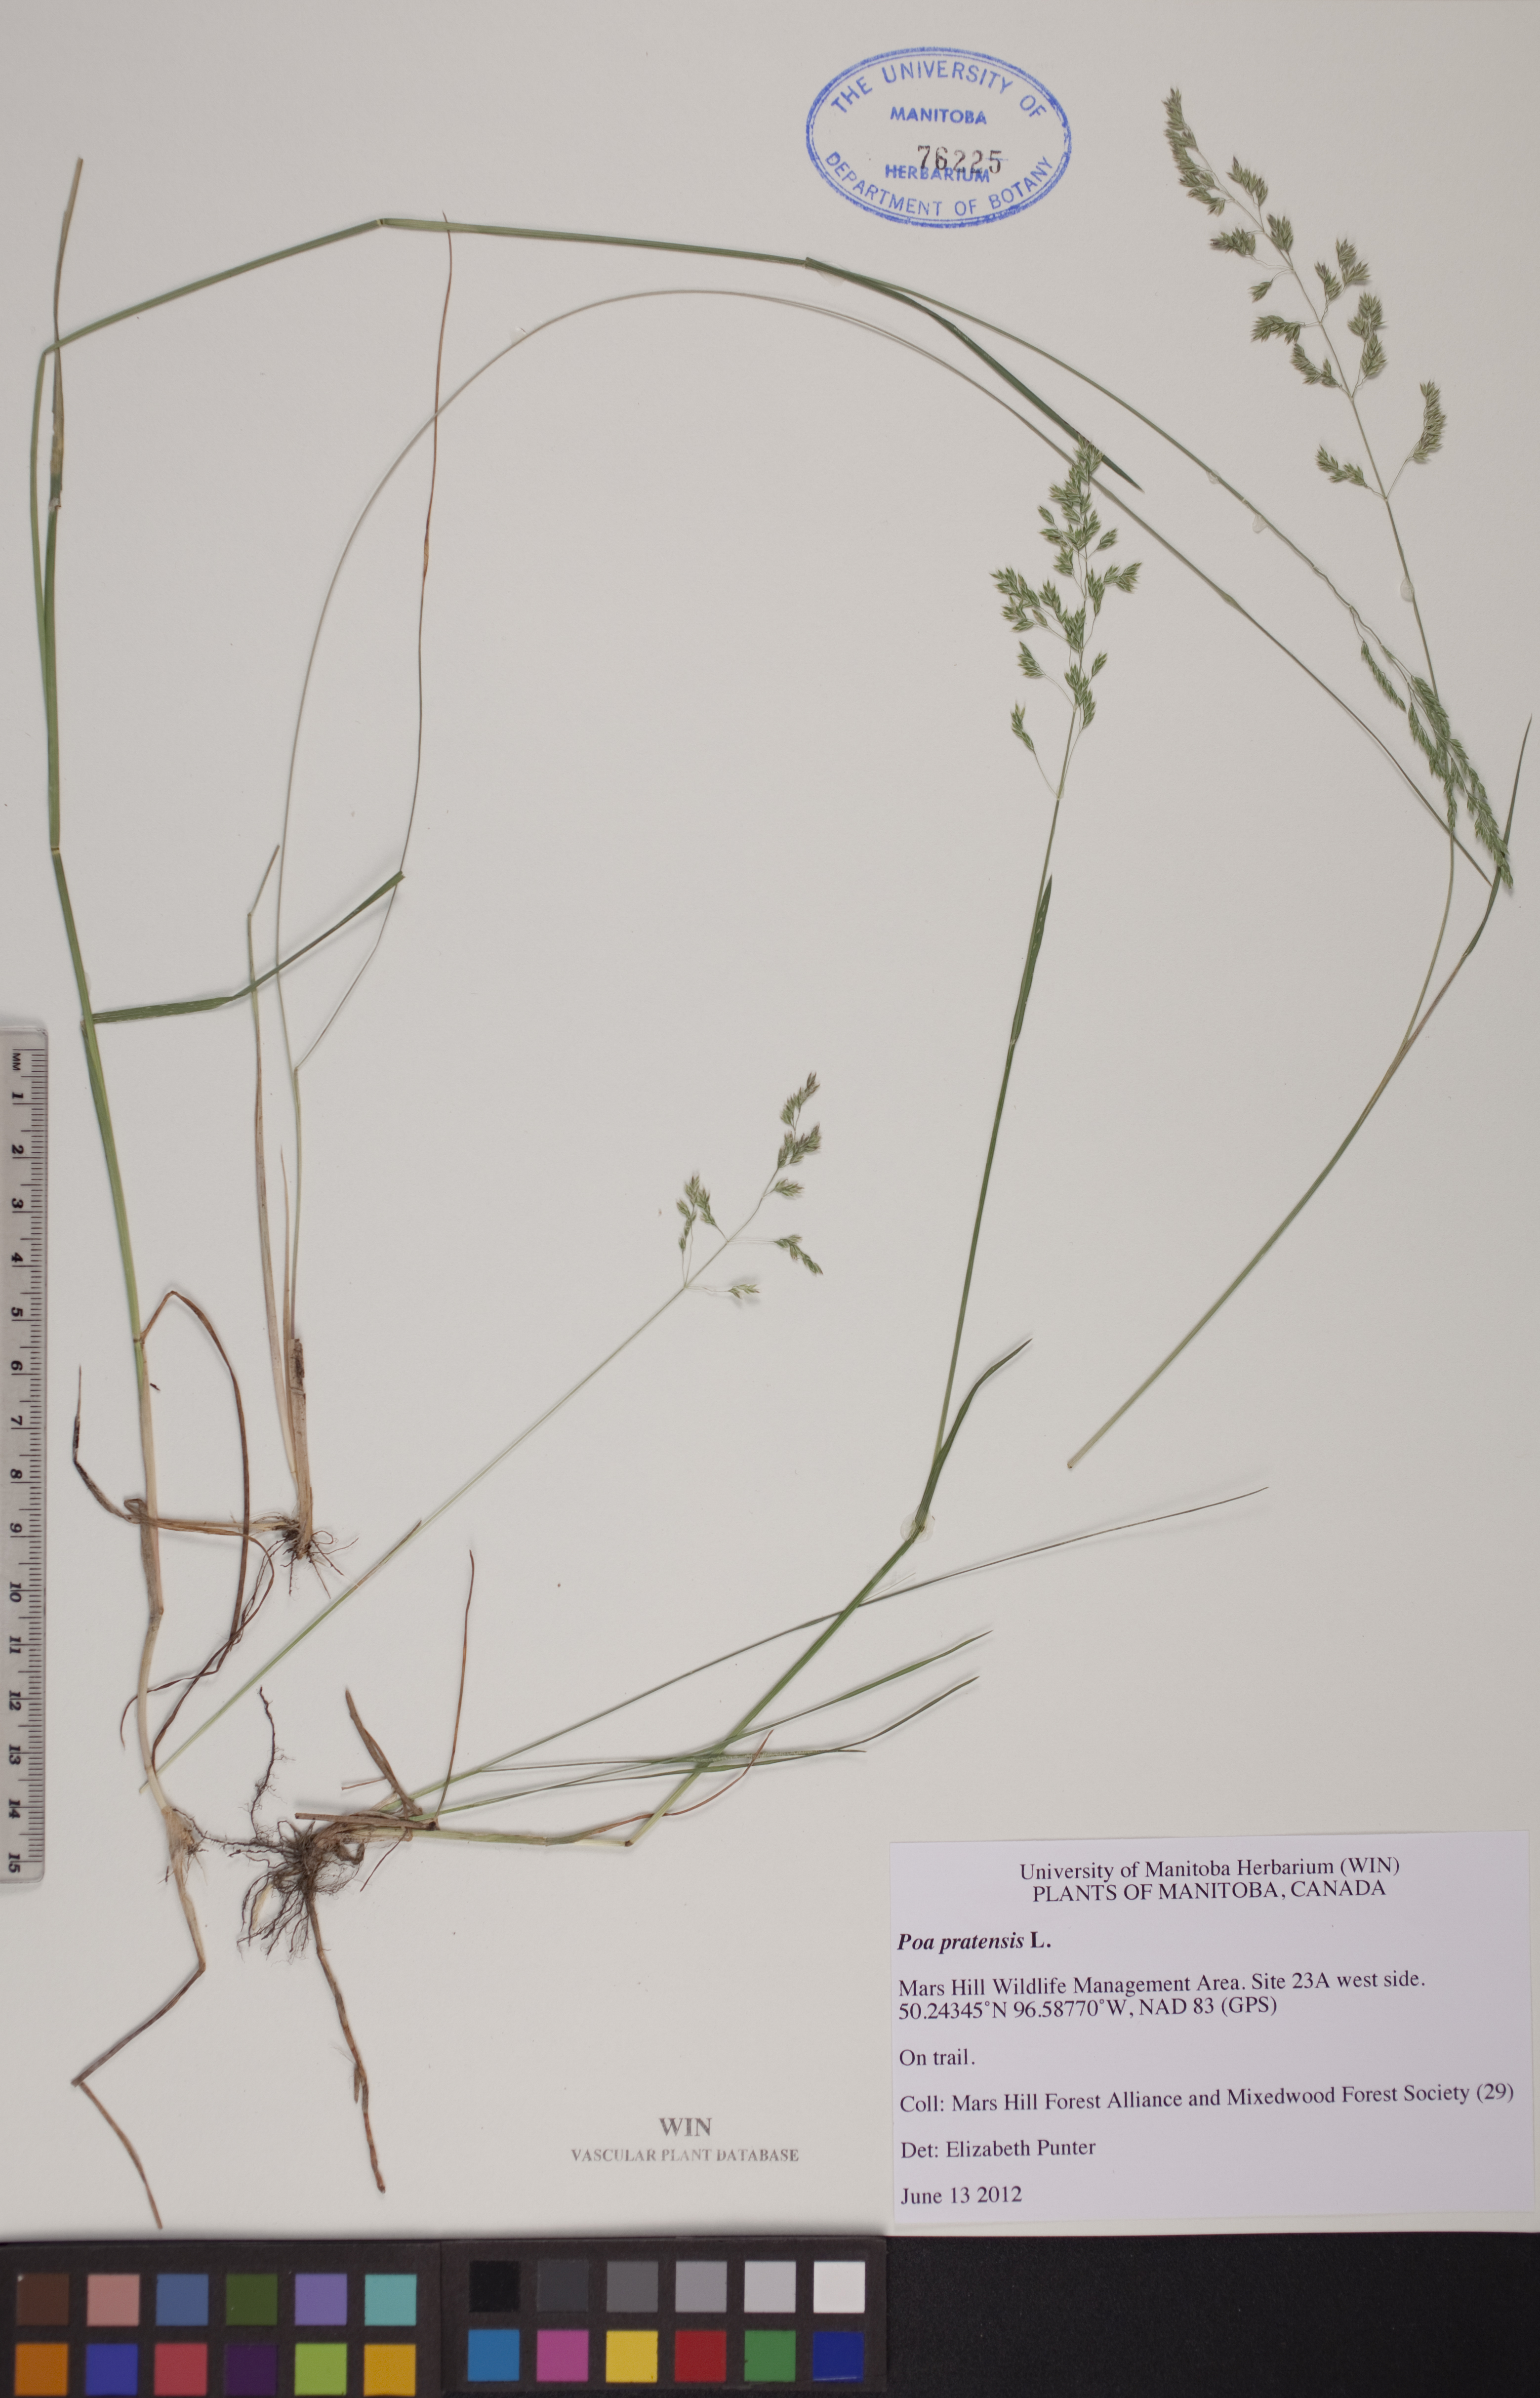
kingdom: Plantae
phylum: Tracheophyta
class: Liliopsida
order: Poales
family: Poaceae
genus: Poa
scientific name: Poa pratensis
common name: Kentucky bluegrass
